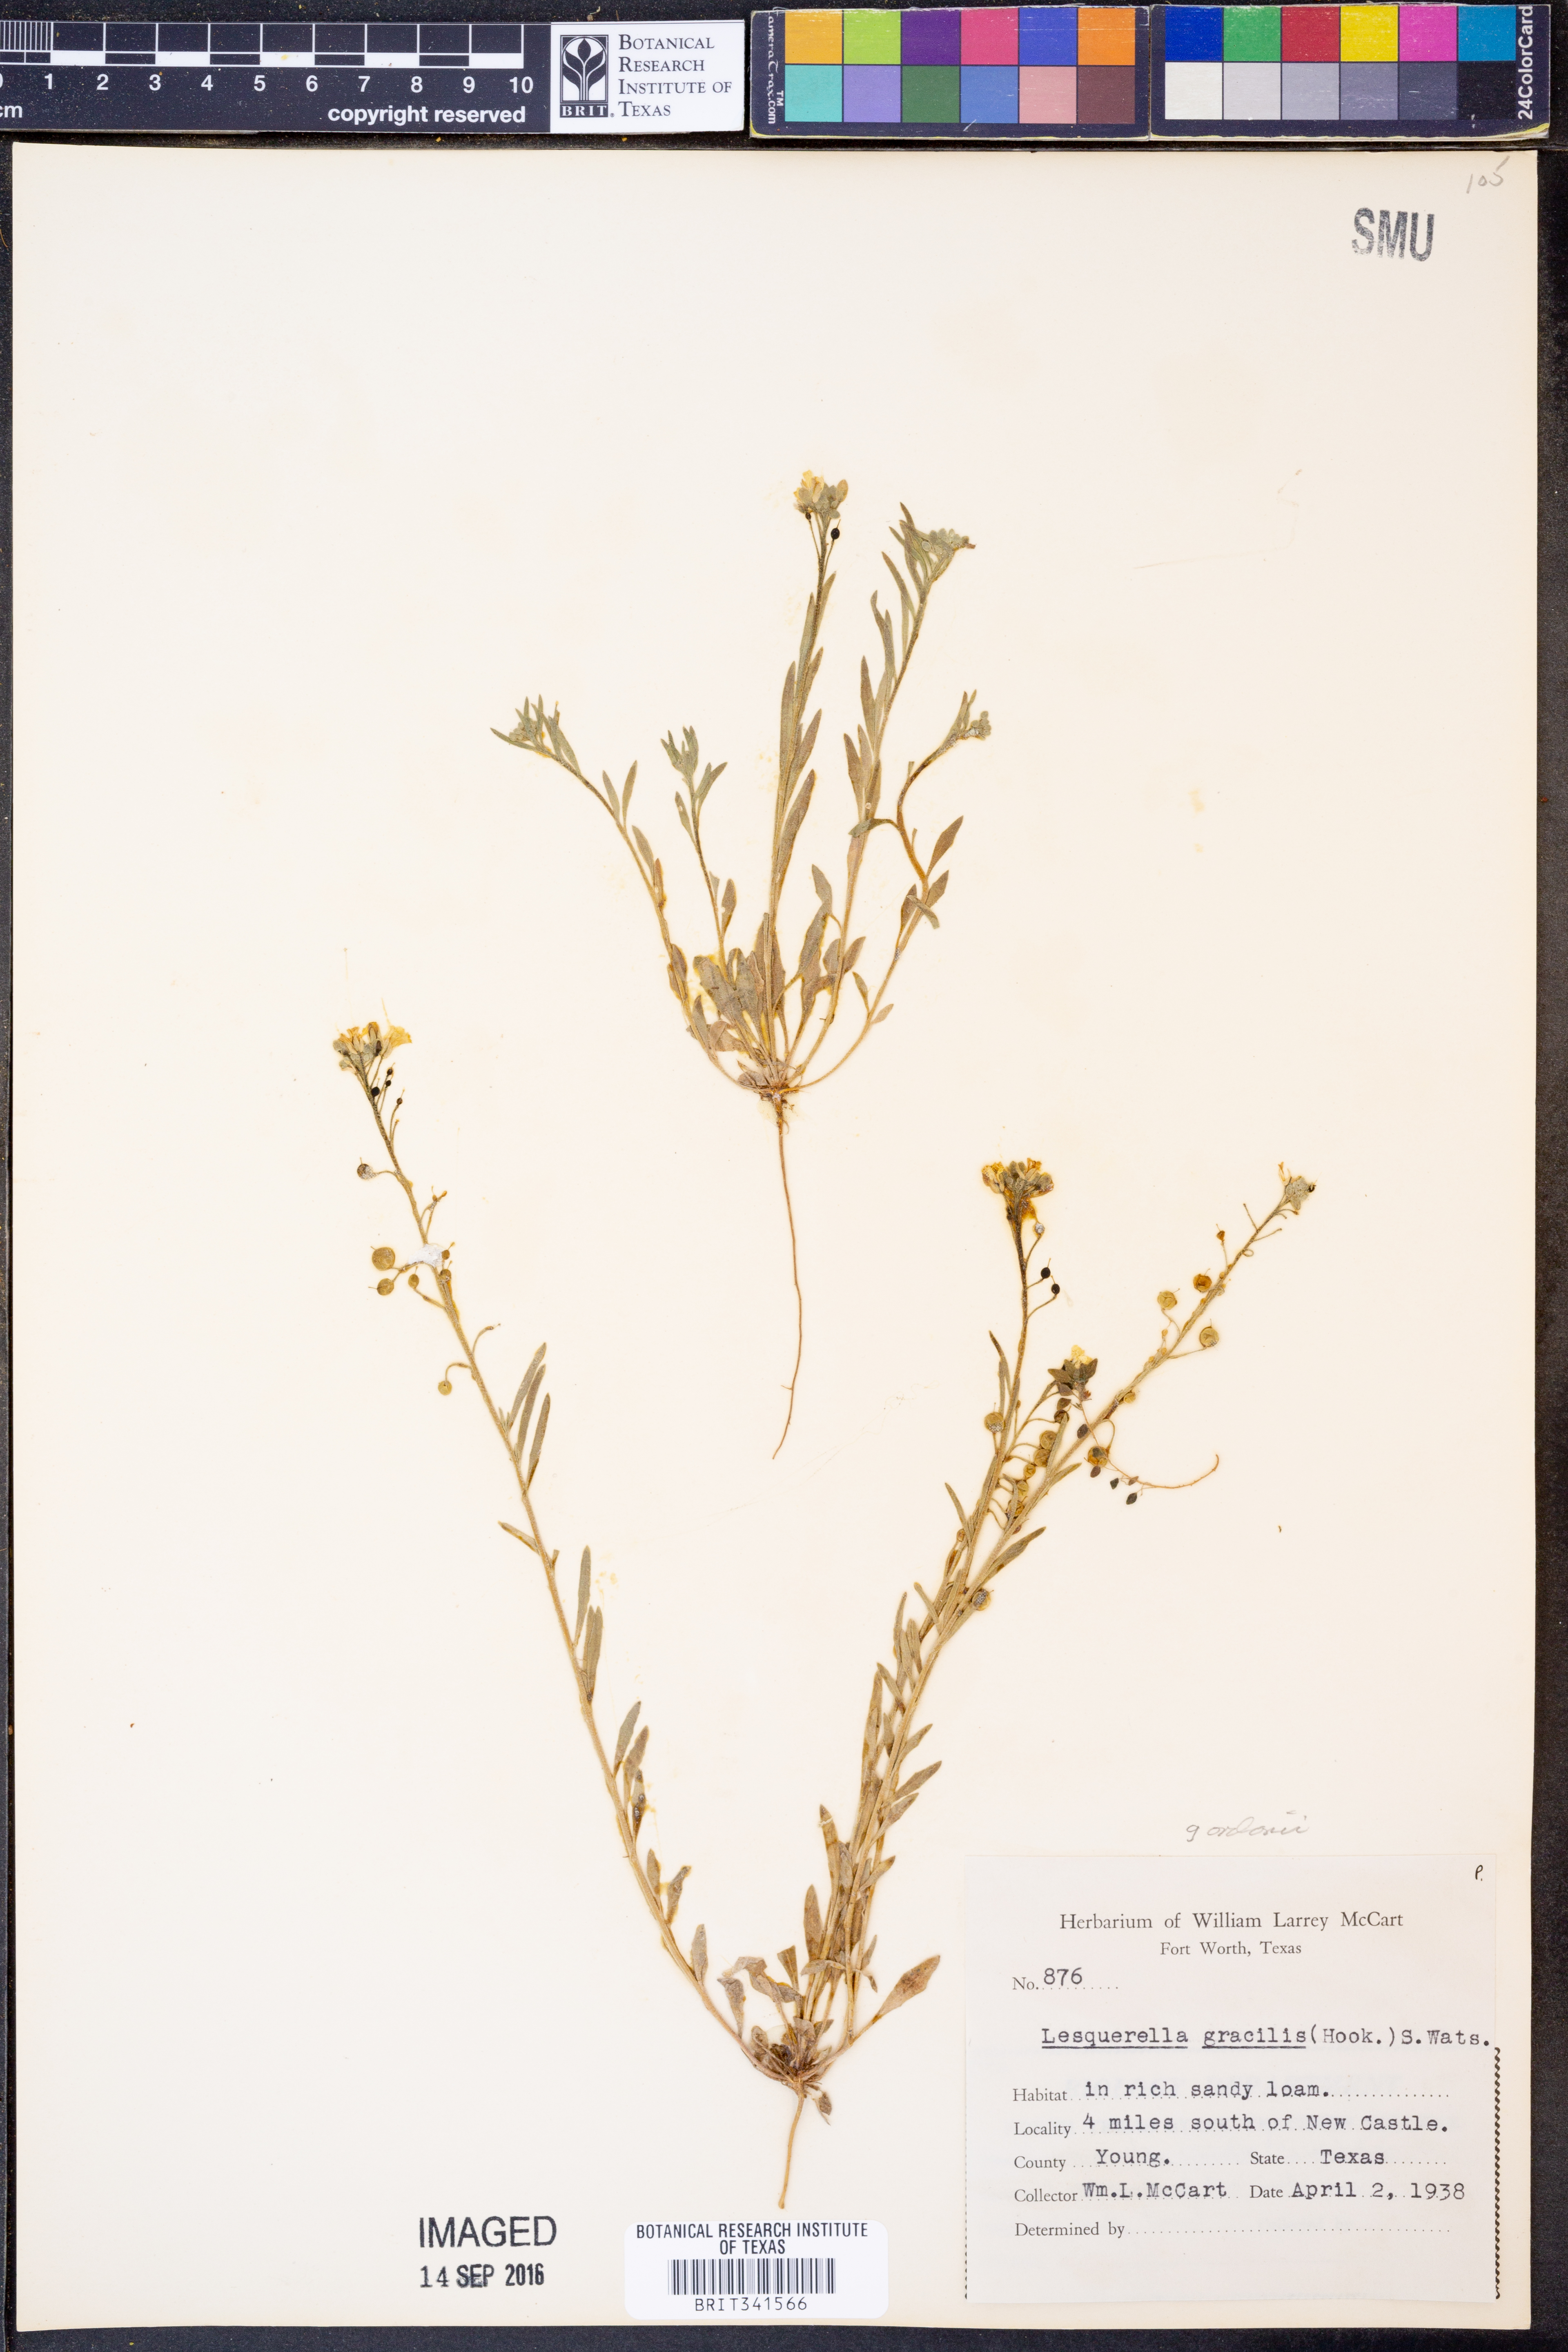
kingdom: Plantae
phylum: Tracheophyta
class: Magnoliopsida
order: Brassicales
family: Brassicaceae
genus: Physaria
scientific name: Physaria gordonii
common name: Gordon's bladderpod
